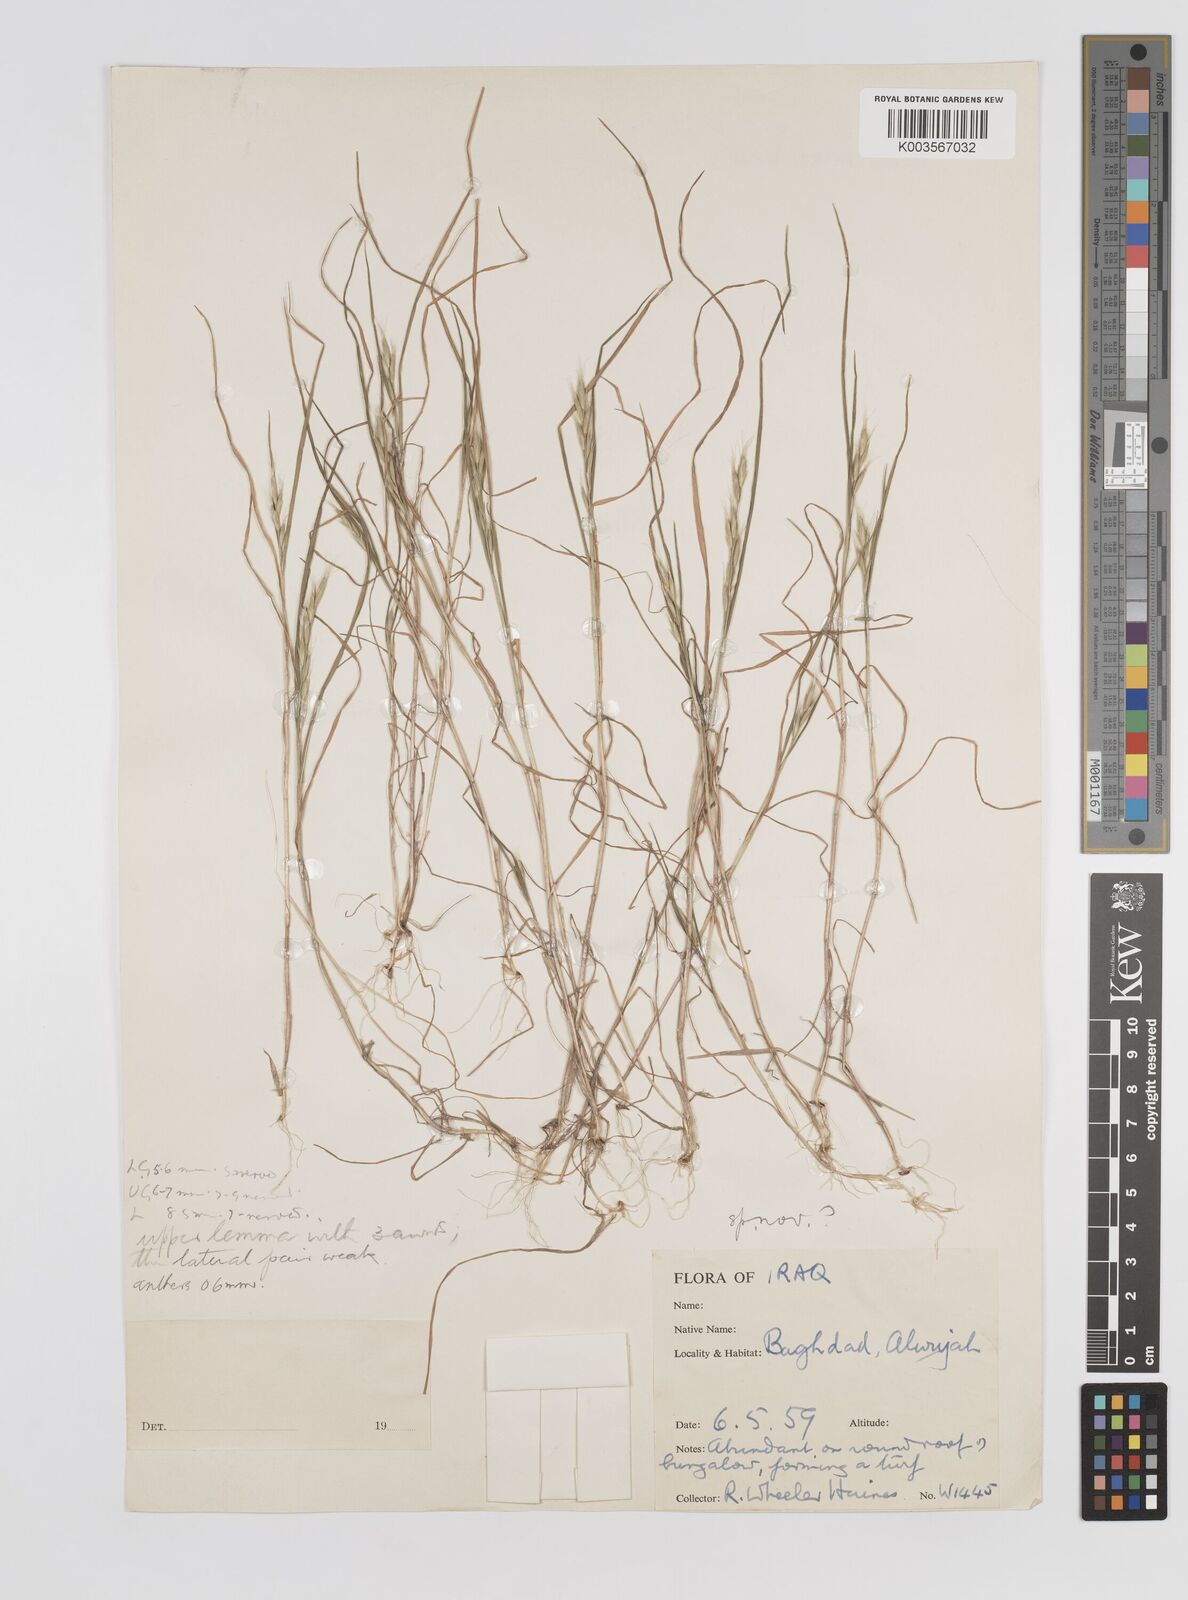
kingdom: Plantae
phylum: Tracheophyta
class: Liliopsida
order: Poales
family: Poaceae
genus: Bromus
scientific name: Bromus danthoniae
